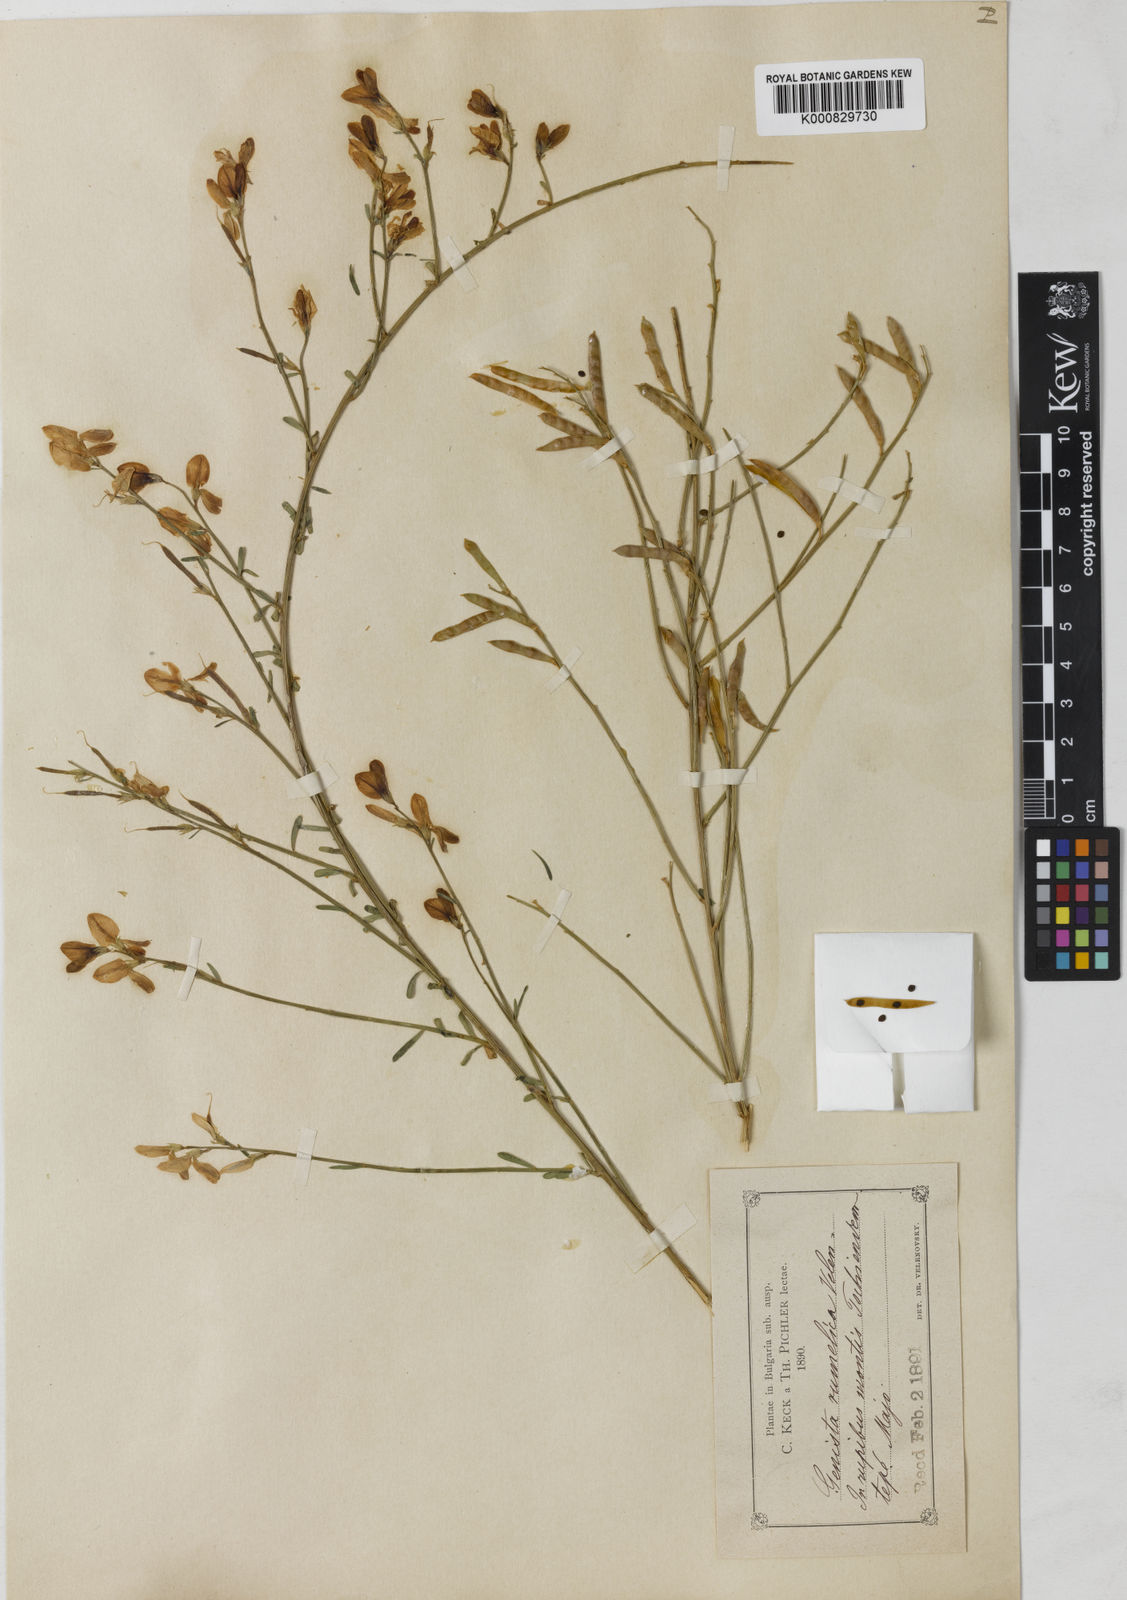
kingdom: Plantae
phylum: Tracheophyta
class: Magnoliopsida
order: Fabales
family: Fabaceae
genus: Genista
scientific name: Genista lydia
